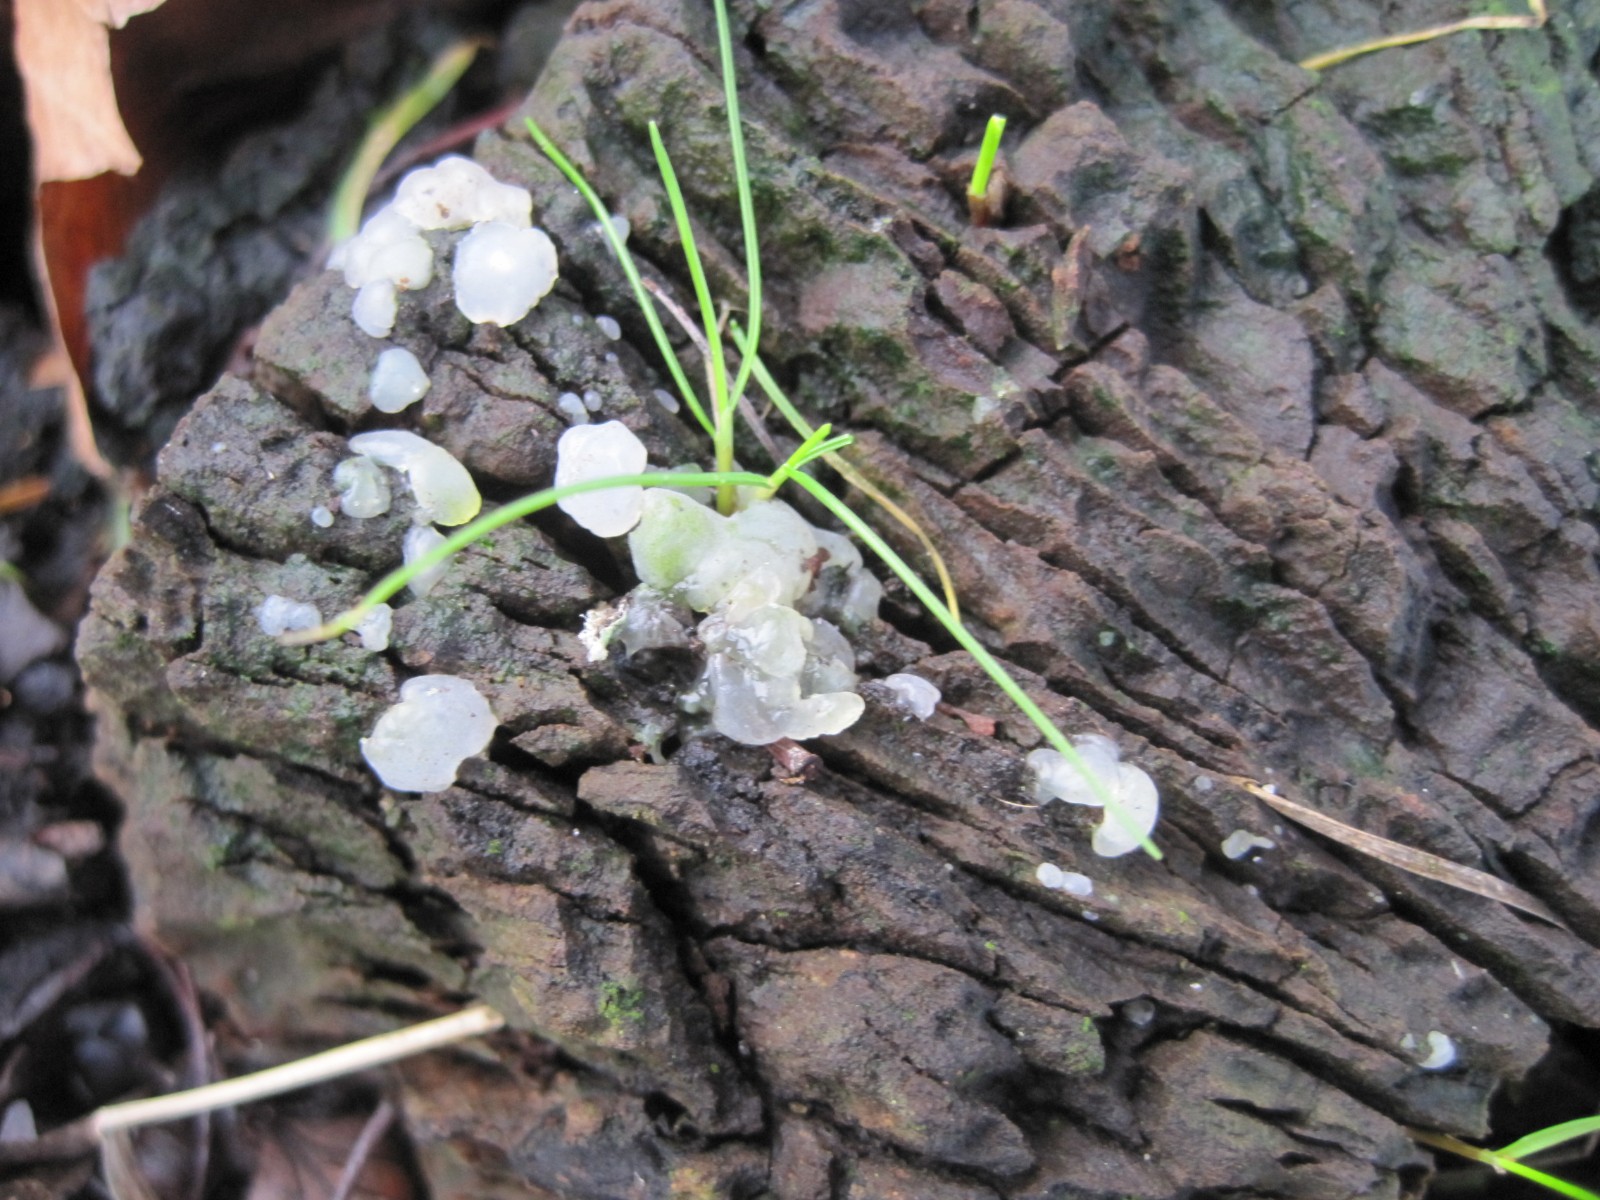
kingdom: Fungi
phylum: Basidiomycota
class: Agaricomycetes
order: Auriculariales
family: Hyaloriaceae
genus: Myxarium
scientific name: Myxarium nucleatum
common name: klar bævretop
